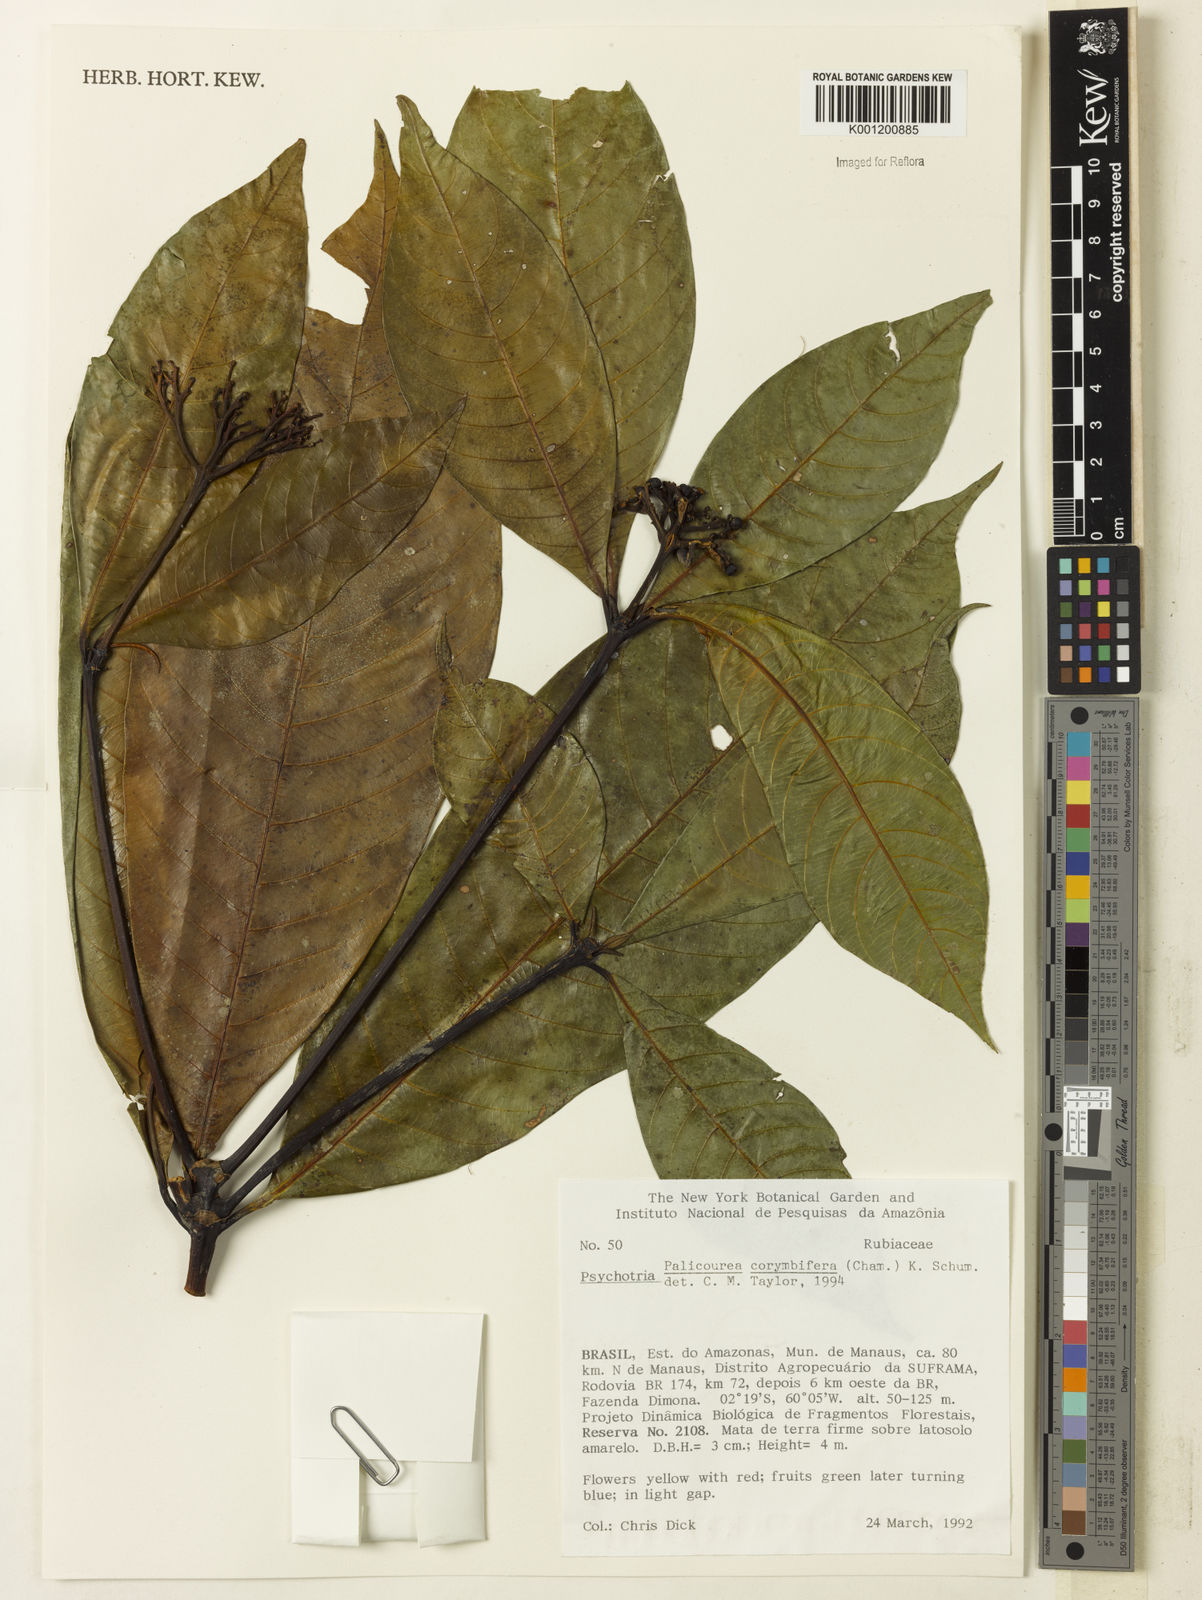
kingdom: Plantae
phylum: Tracheophyta
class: Magnoliopsida
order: Gentianales
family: Rubiaceae
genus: Palicourea
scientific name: Palicourea
